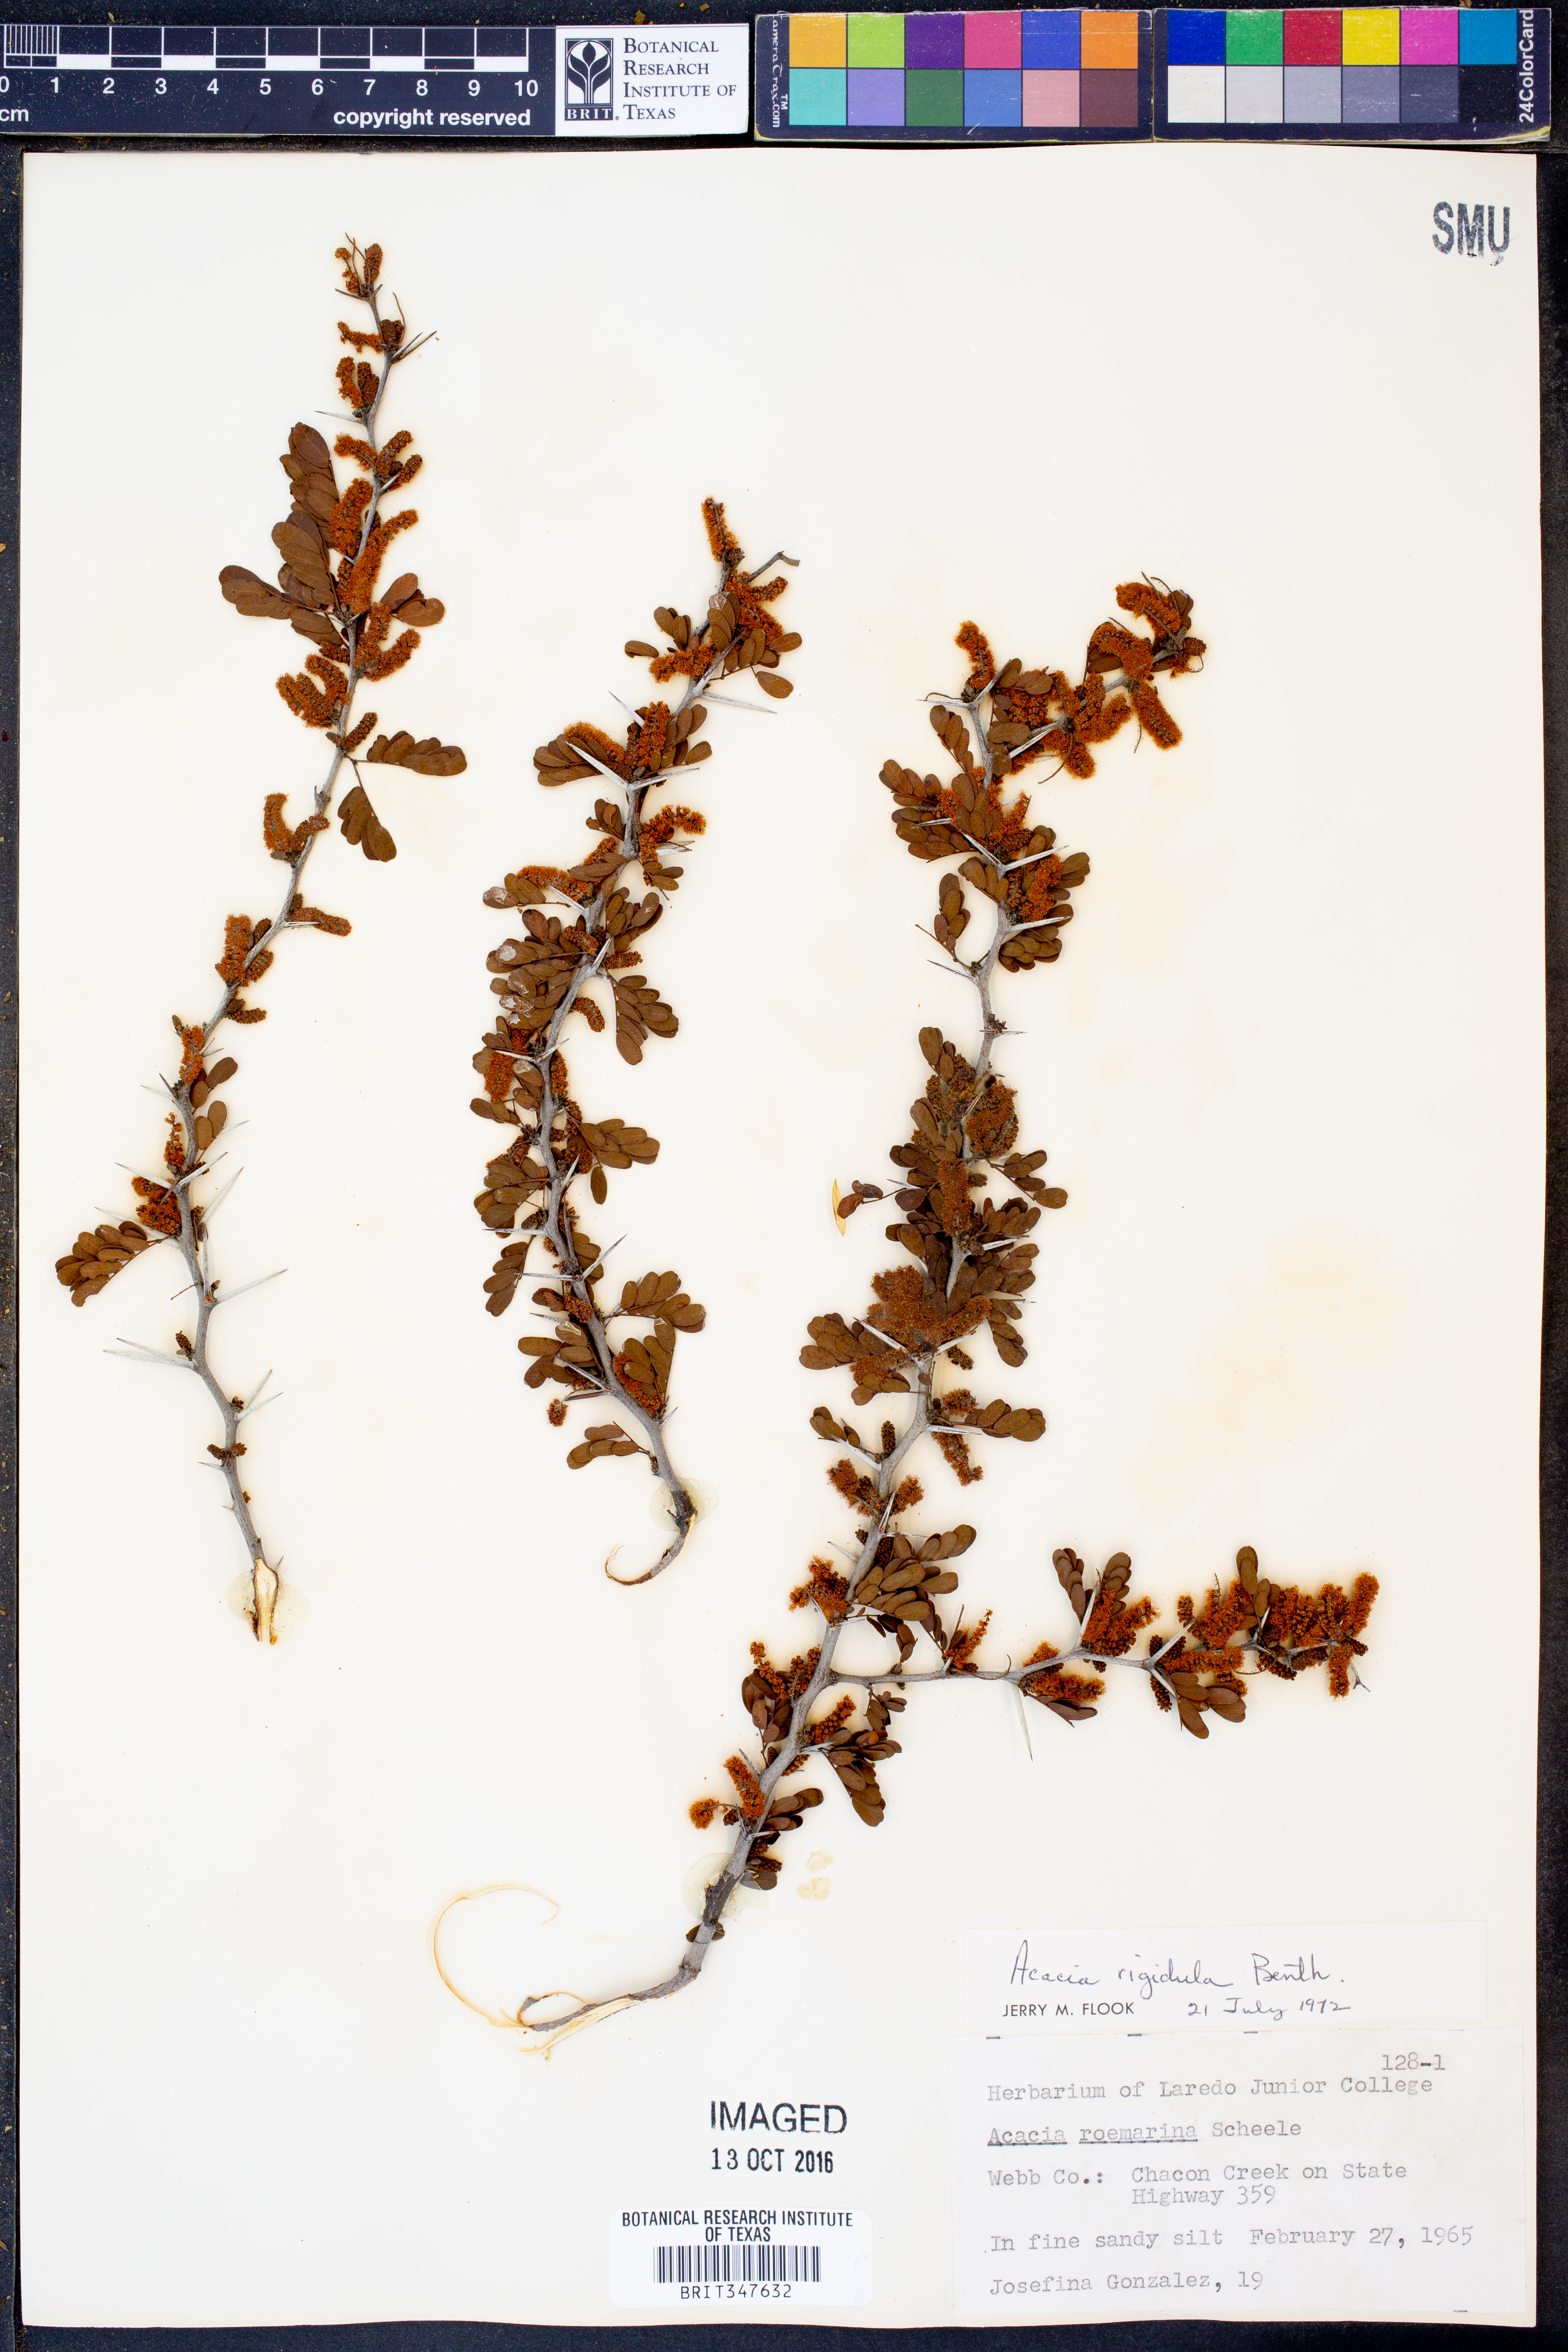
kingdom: Plantae
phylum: Tracheophyta
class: Magnoliopsida
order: Fabales
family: Fabaceae
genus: Vachellia
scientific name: Vachellia rigidula
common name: Blackbrush
